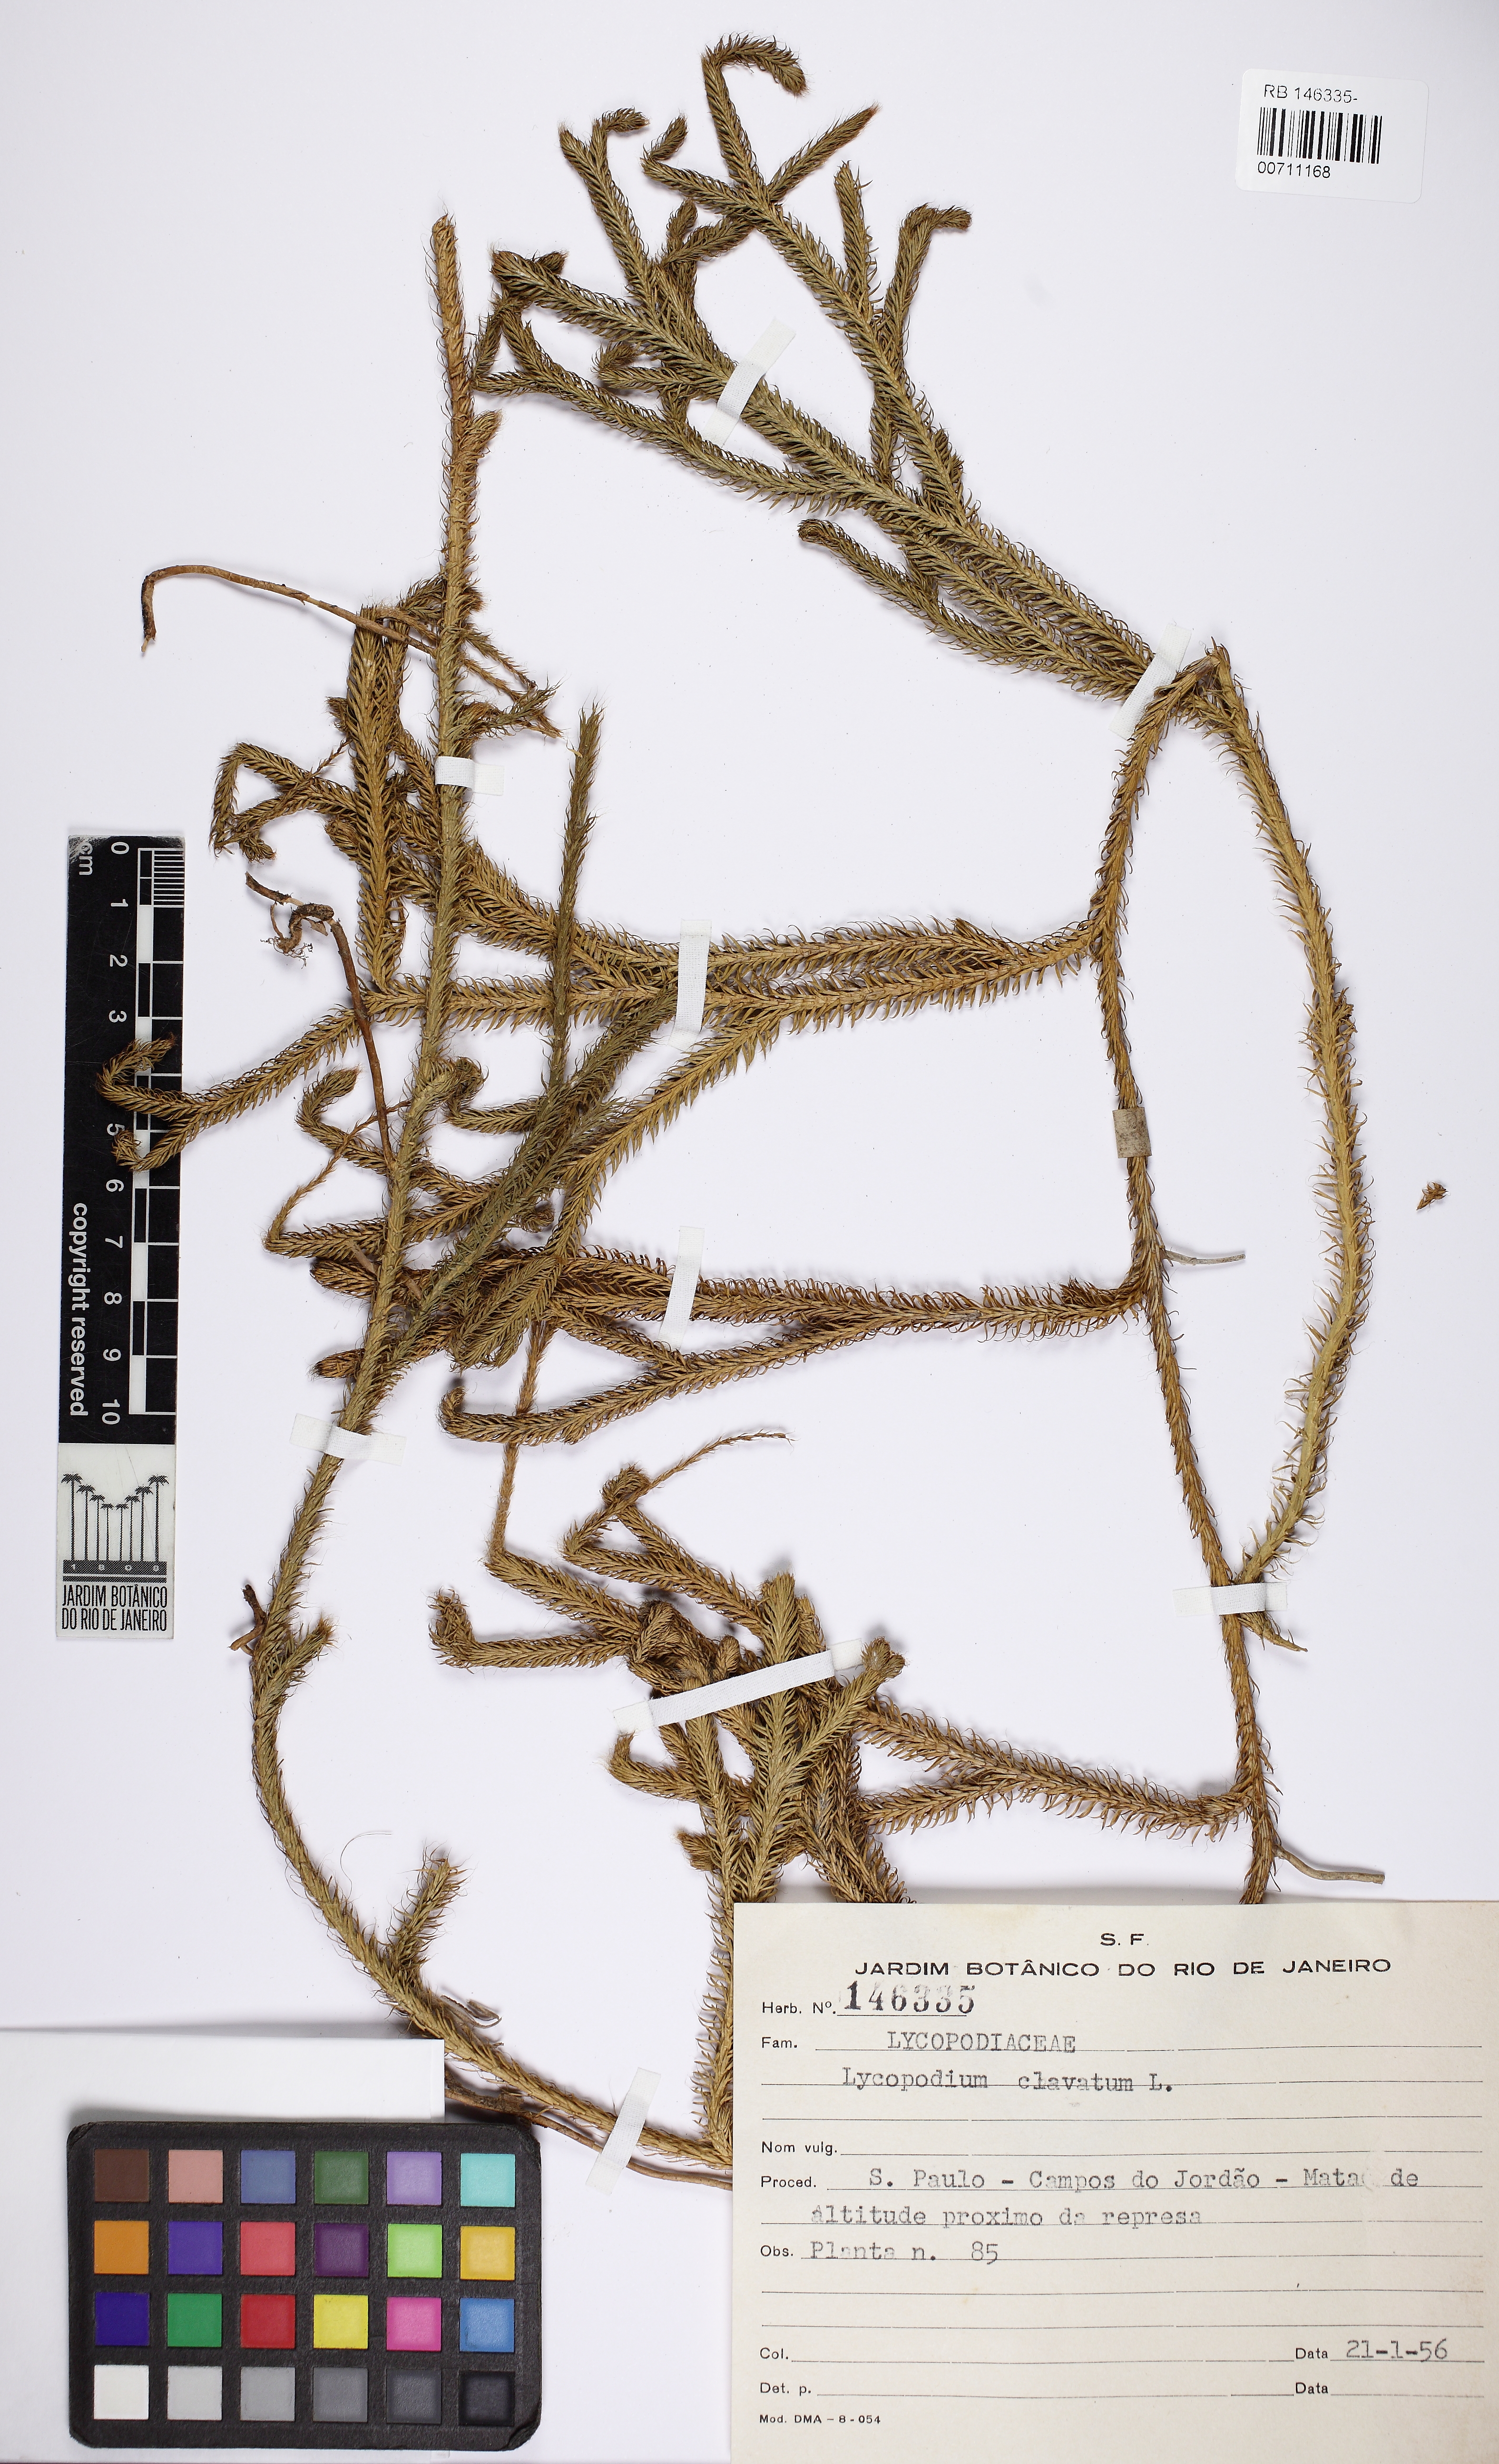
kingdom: Plantae
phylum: Tracheophyta
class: Lycopodiopsida
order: Lycopodiales
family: Lycopodiaceae
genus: Lycopodium
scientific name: Lycopodium clavatum
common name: Stag's-horn clubmoss
